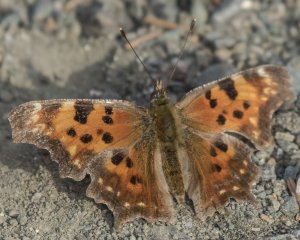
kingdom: Animalia
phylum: Arthropoda
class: Insecta
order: Lepidoptera
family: Nymphalidae
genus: Polygonia
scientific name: Polygonia faunus
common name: Green Comma
